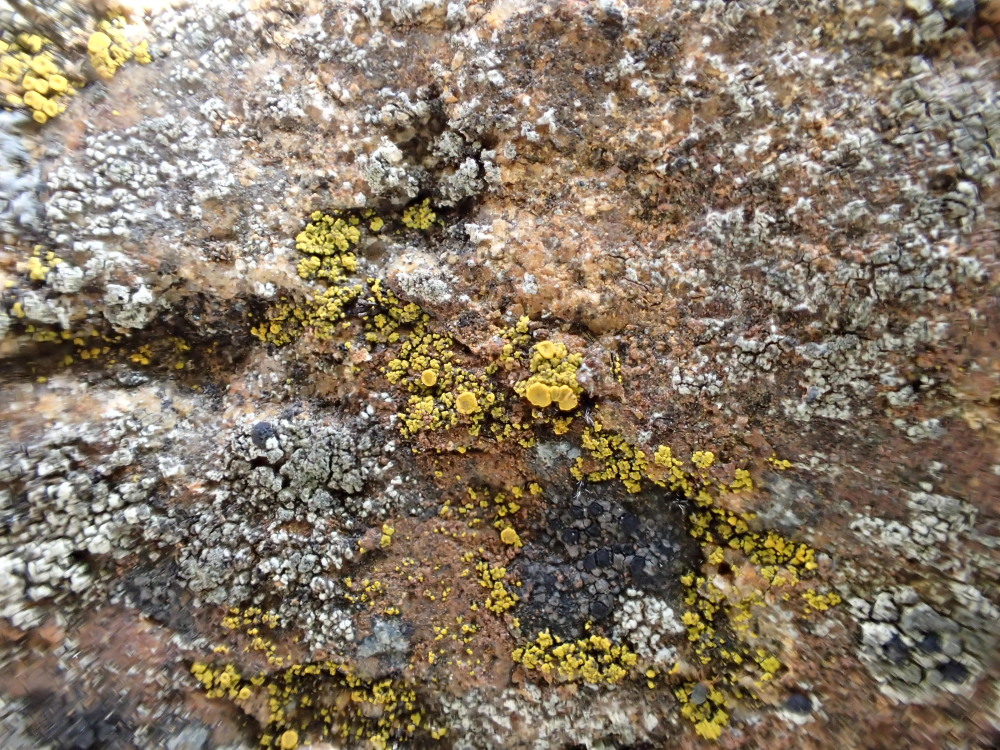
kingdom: Fungi
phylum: Ascomycota
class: Candelariomycetes
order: Candelariales
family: Candelariaceae
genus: Candelariella
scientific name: Candelariella vitellina
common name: almindelig æggeblommelav
